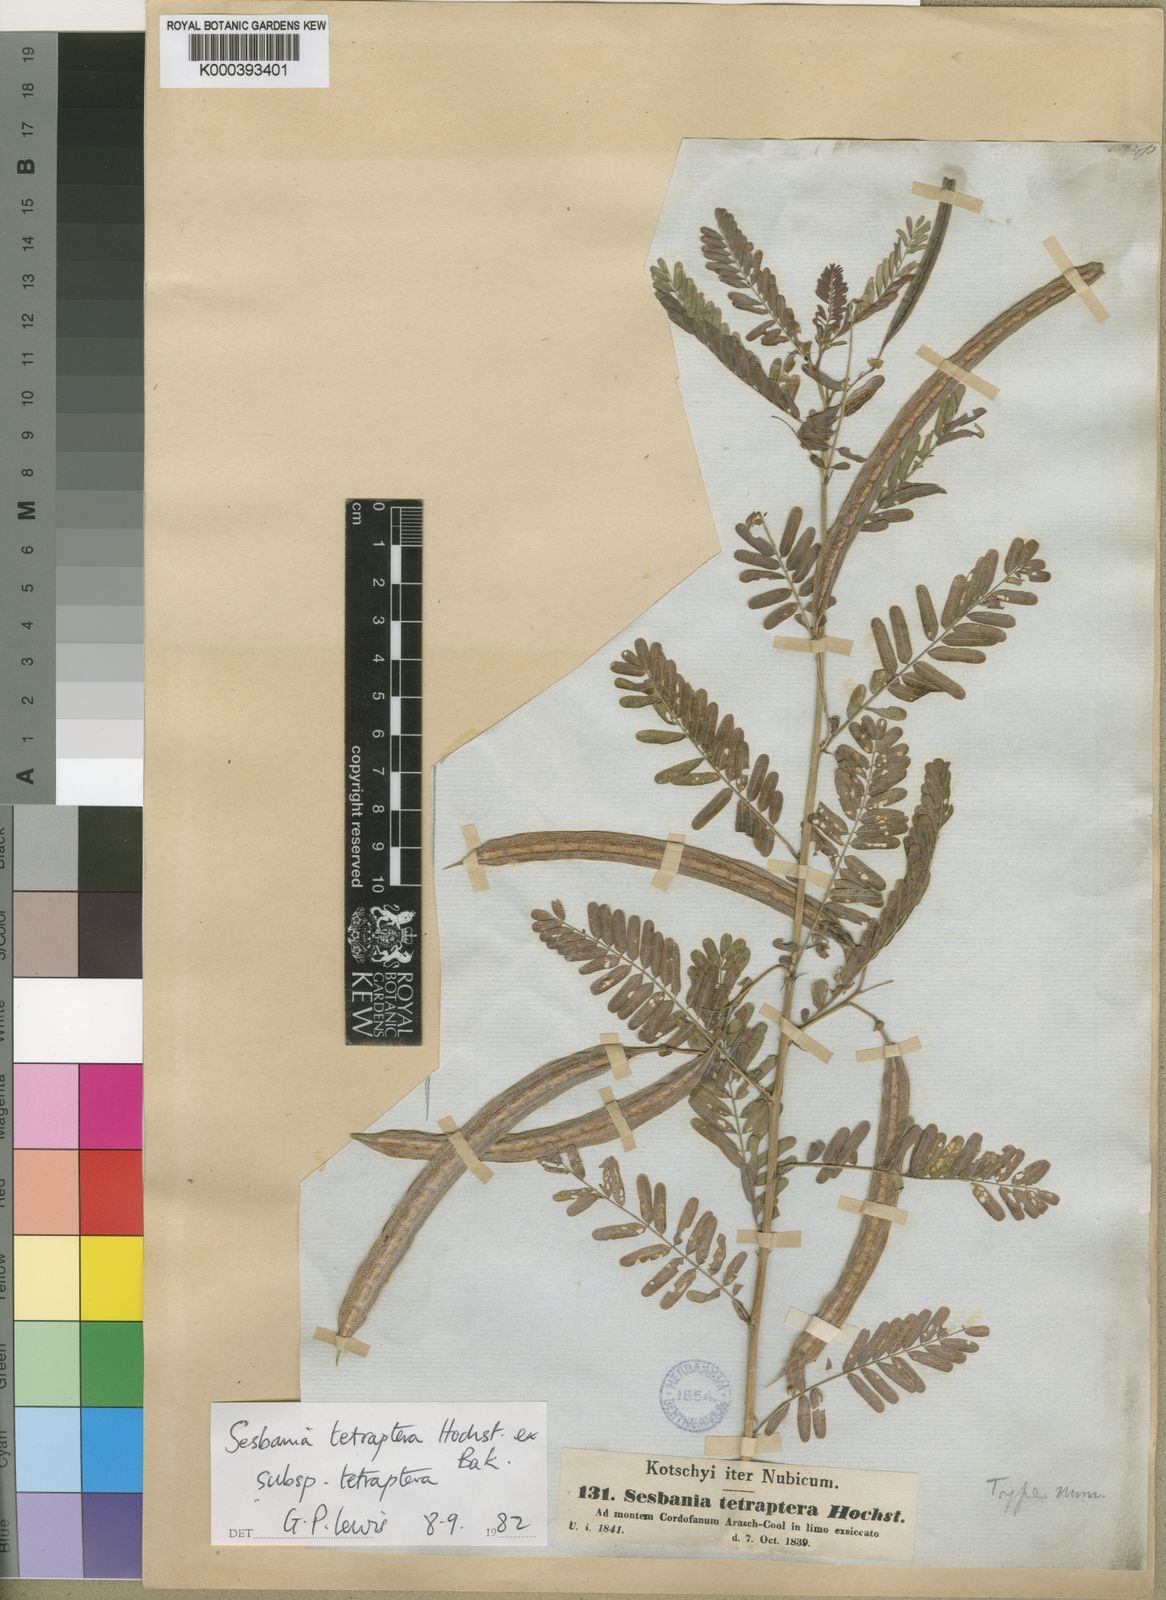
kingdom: Plantae
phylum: Tracheophyta
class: Magnoliopsida
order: Fabales
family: Fabaceae
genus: Sesbania
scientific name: Sesbania tetraptera
